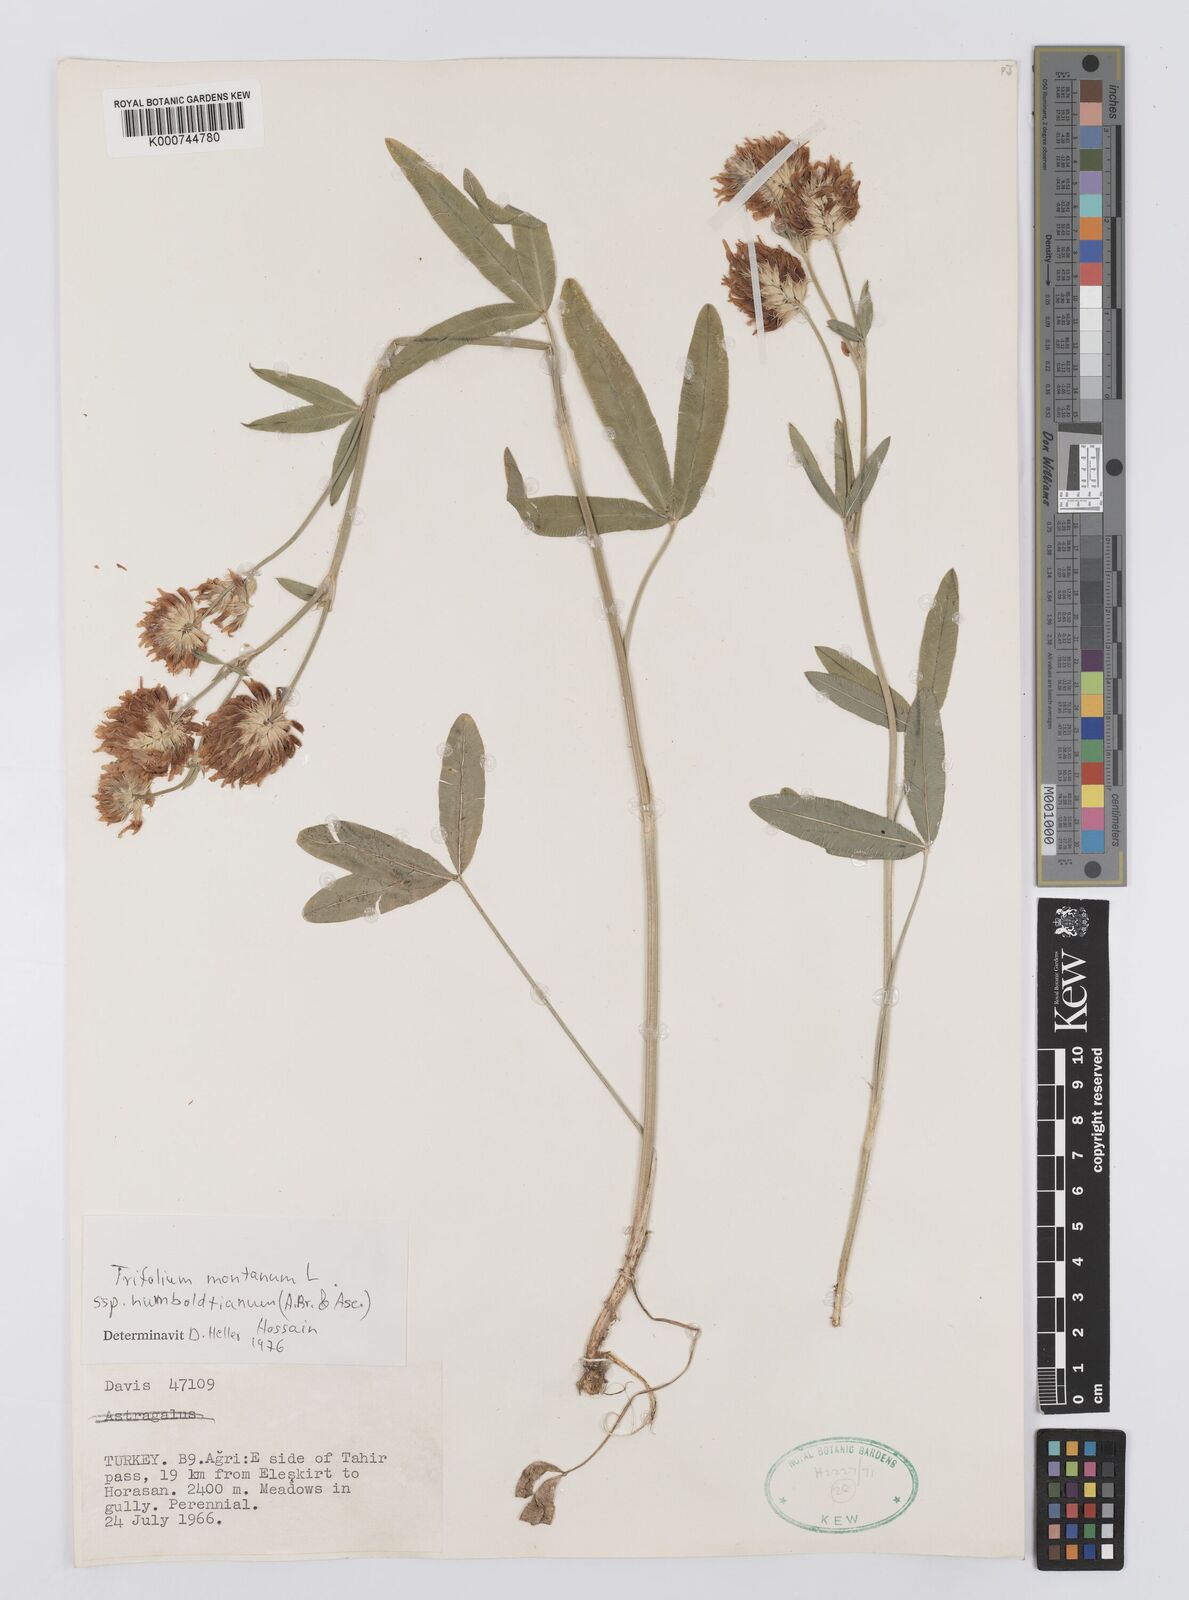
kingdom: Plantae
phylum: Tracheophyta
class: Magnoliopsida
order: Fabales
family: Fabaceae
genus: Trifolium
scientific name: Trifolium
